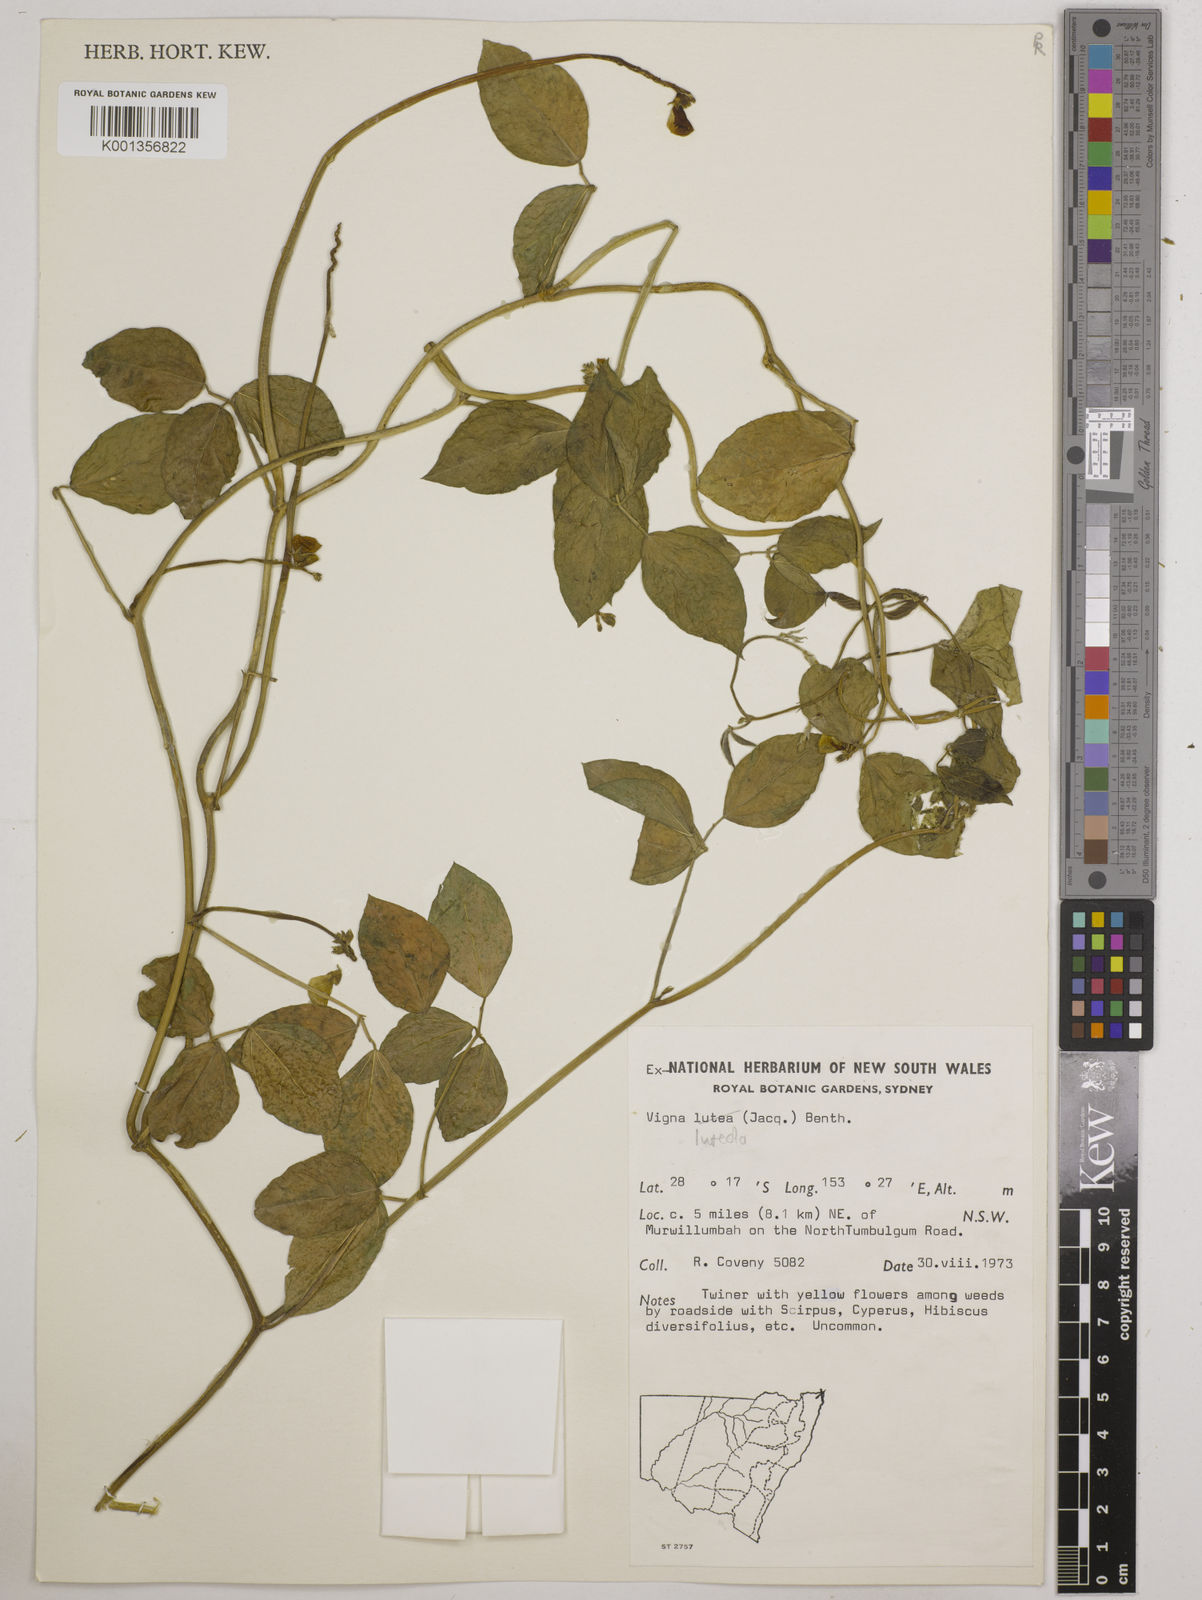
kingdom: Plantae
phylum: Tracheophyta
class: Magnoliopsida
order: Fabales
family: Fabaceae
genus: Vigna
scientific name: Vigna luteola
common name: Hairypod cowpea
